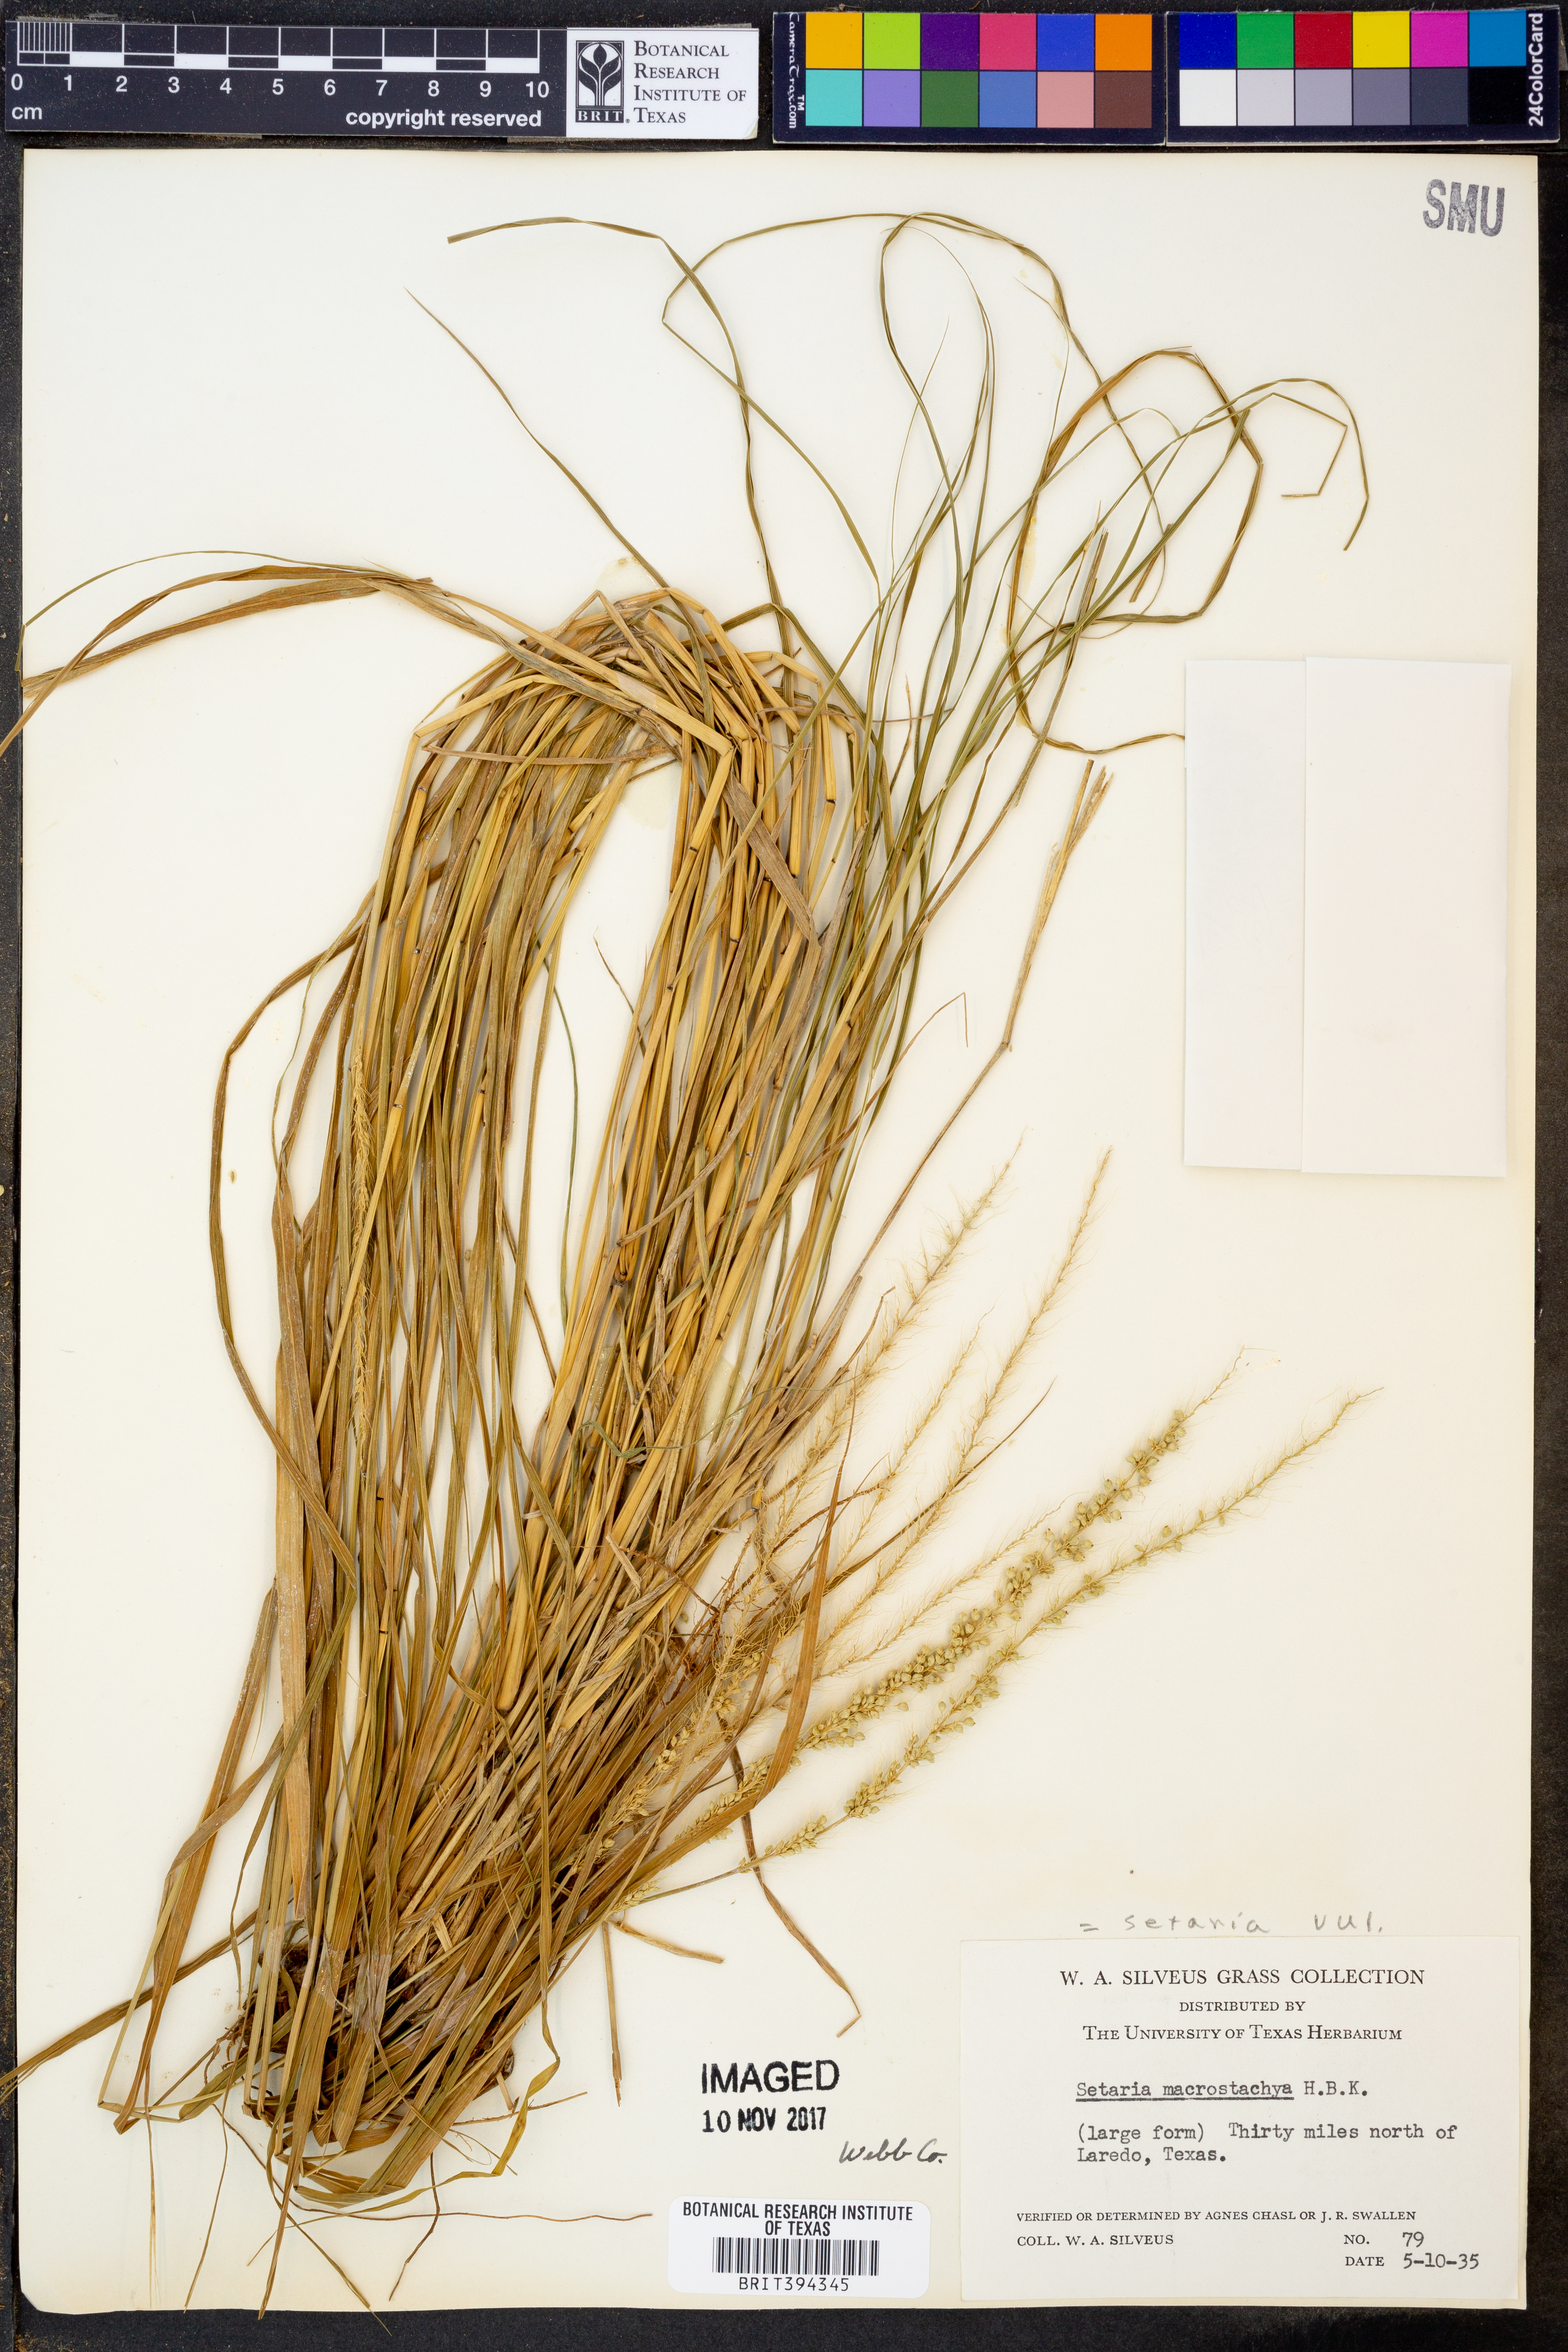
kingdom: Plantae
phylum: Tracheophyta
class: Liliopsida
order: Poales
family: Poaceae
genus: Setaria
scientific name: Setaria macrostachya
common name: Plains bristle grass
